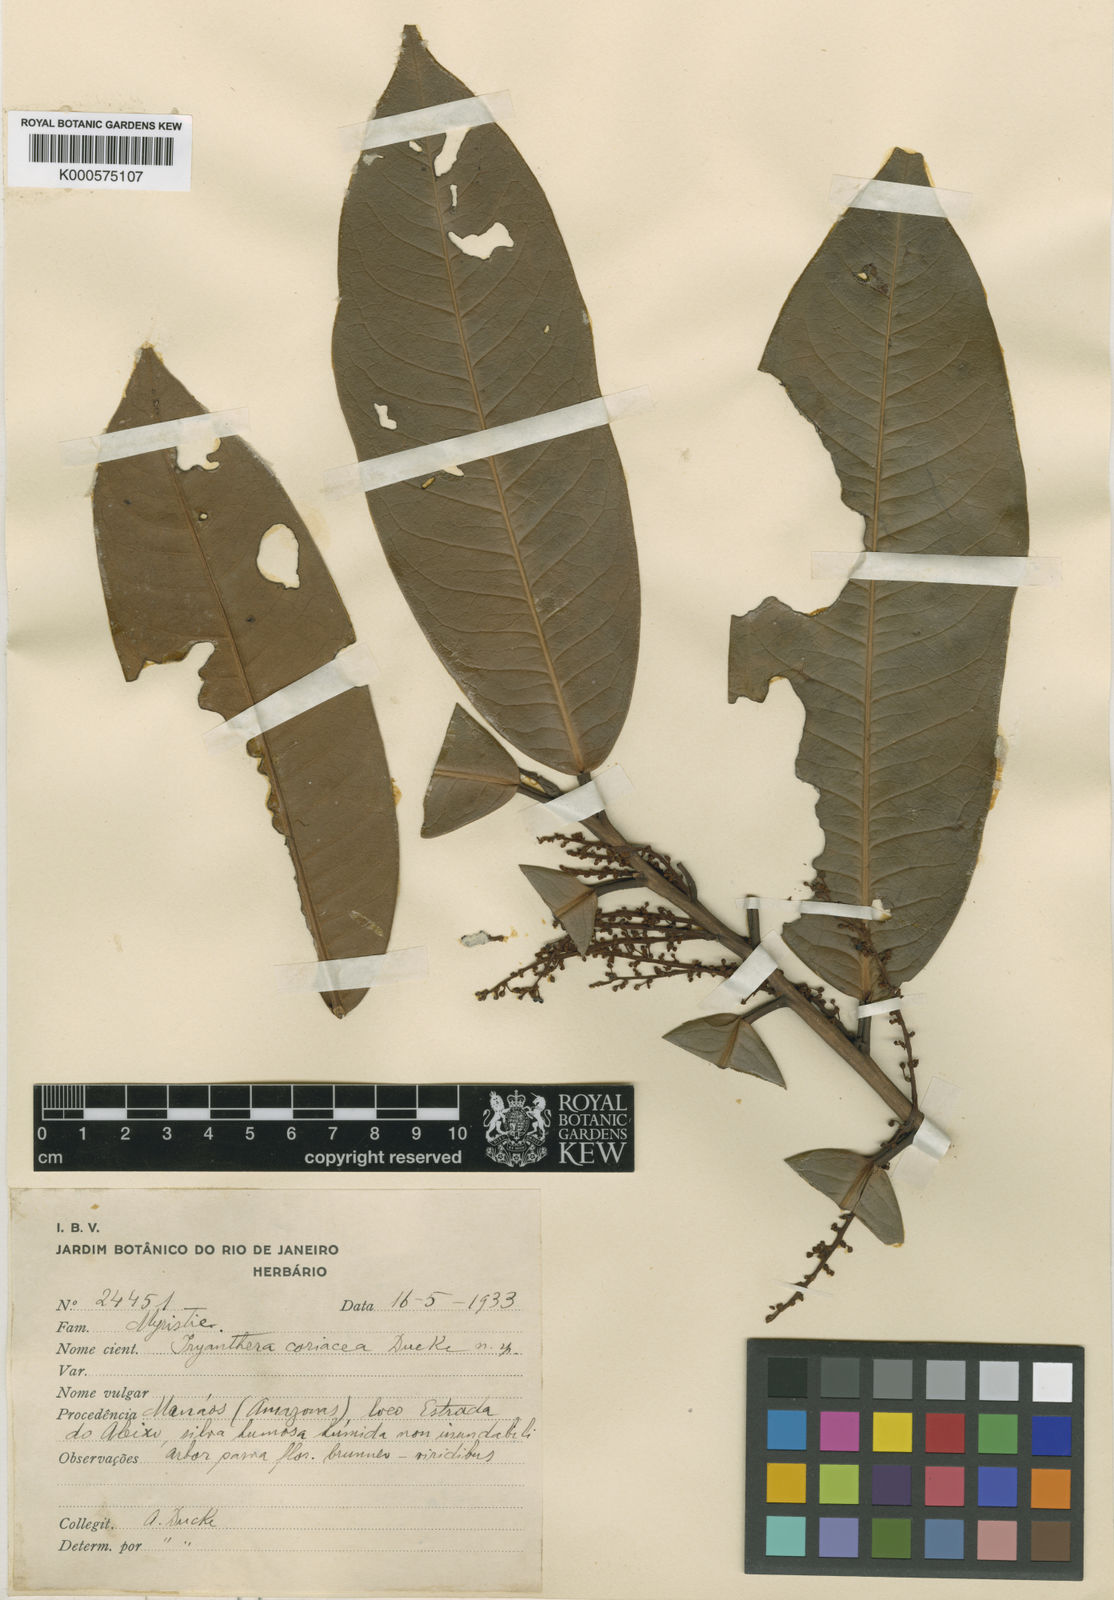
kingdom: Plantae
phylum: Tracheophyta
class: Magnoliopsida
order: Magnoliales
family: Myristicaceae
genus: Iryanthera
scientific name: Iryanthera coriacea
